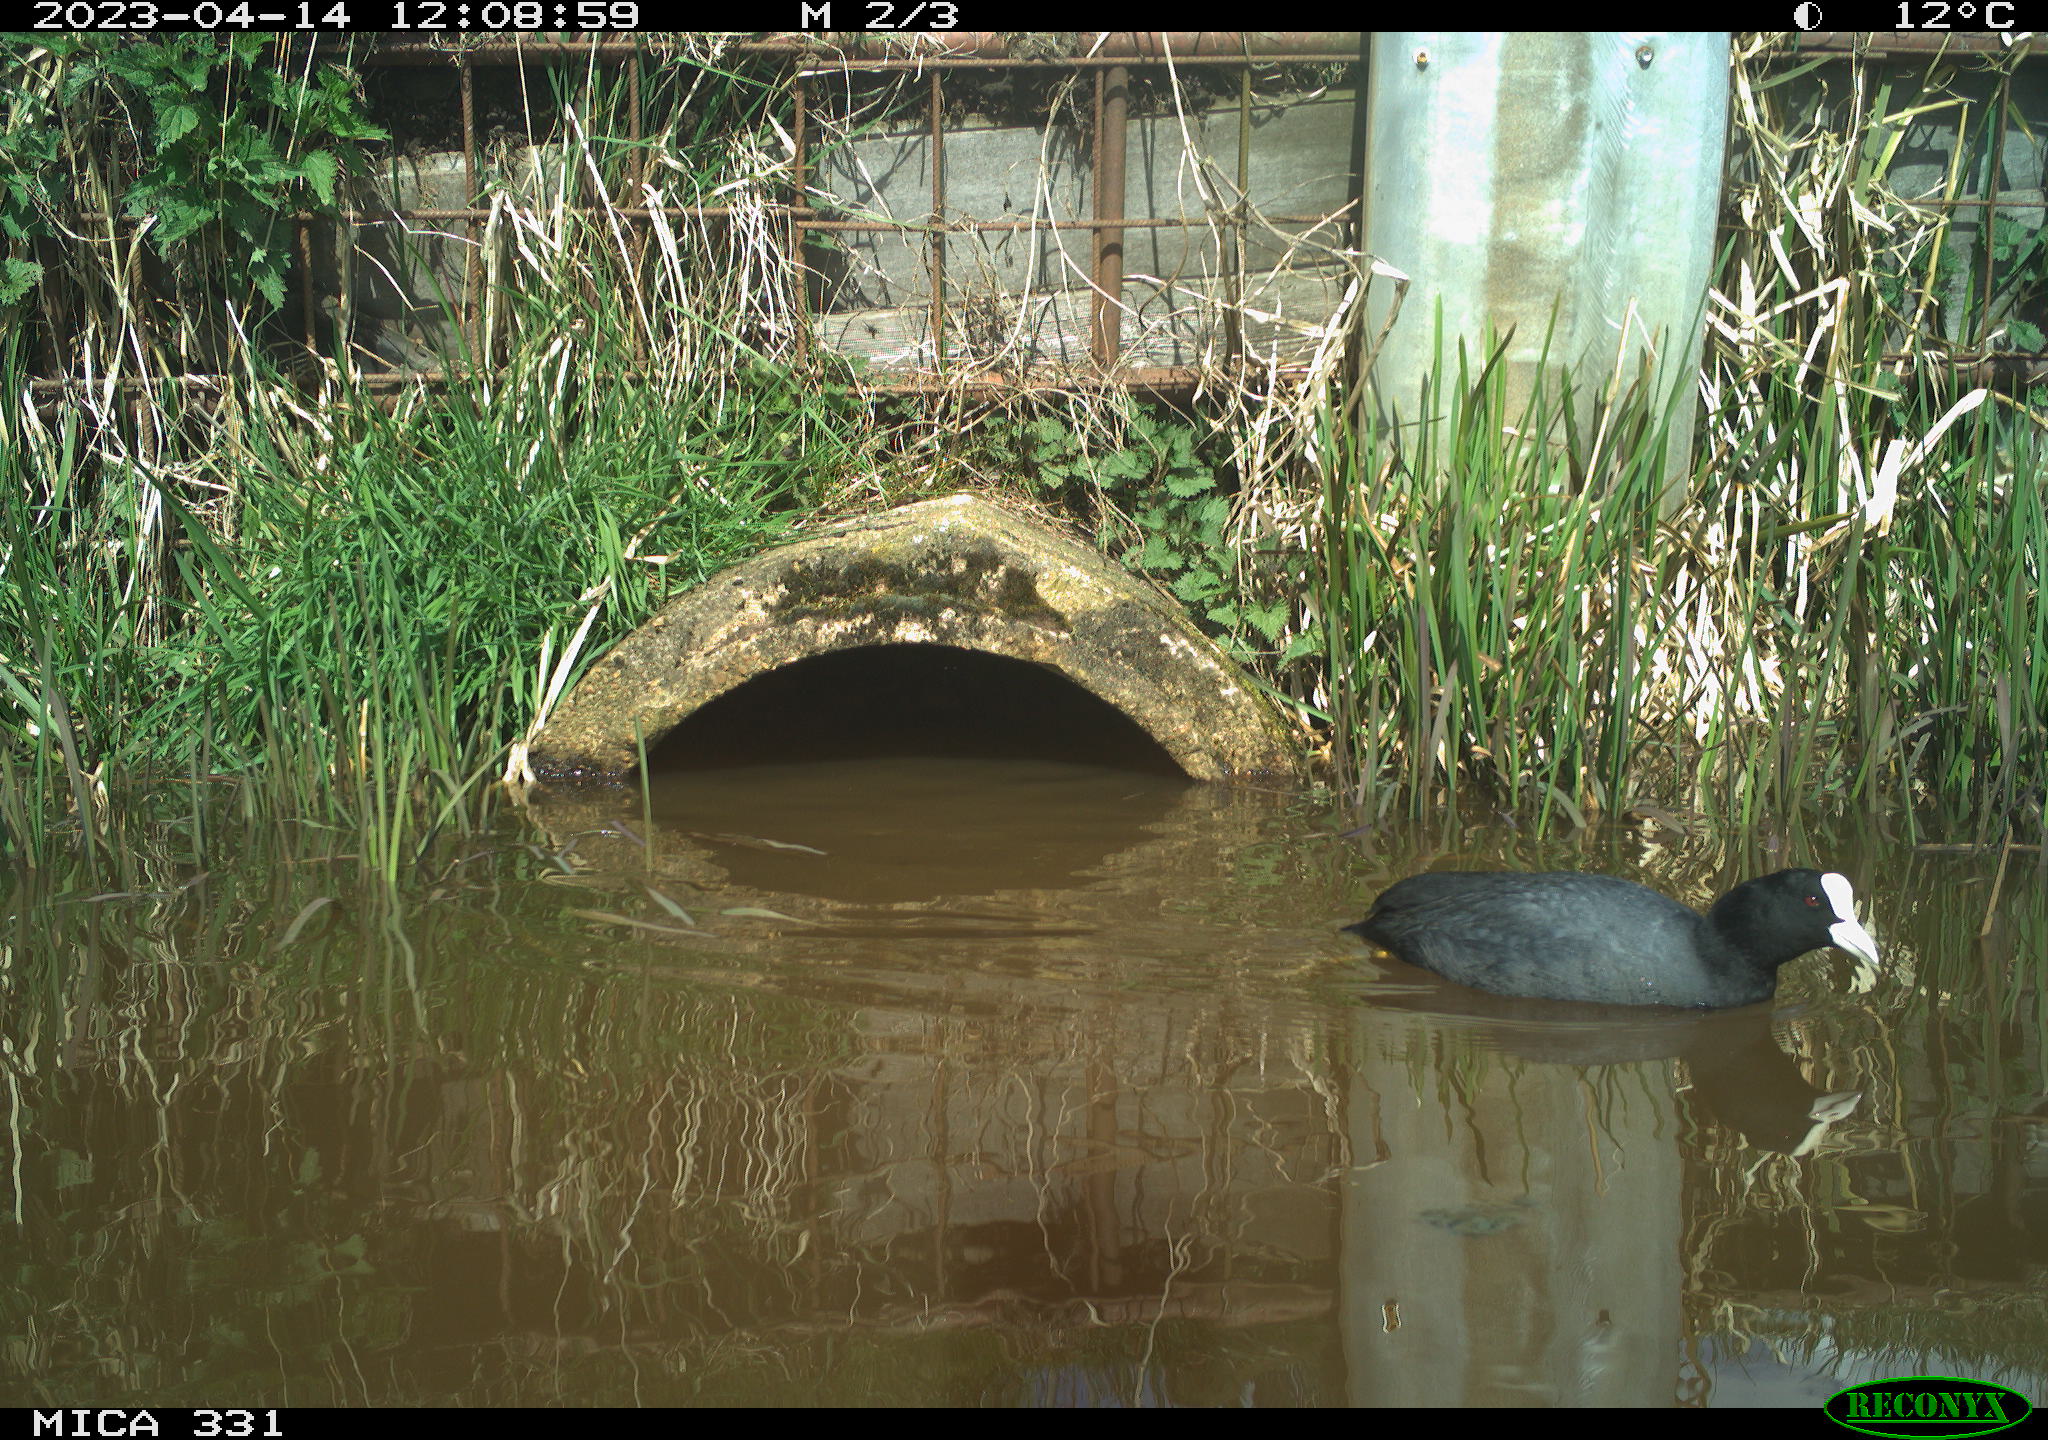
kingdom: Animalia
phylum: Chordata
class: Aves
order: Gruiformes
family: Rallidae
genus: Fulica
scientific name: Fulica atra
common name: Eurasian coot
